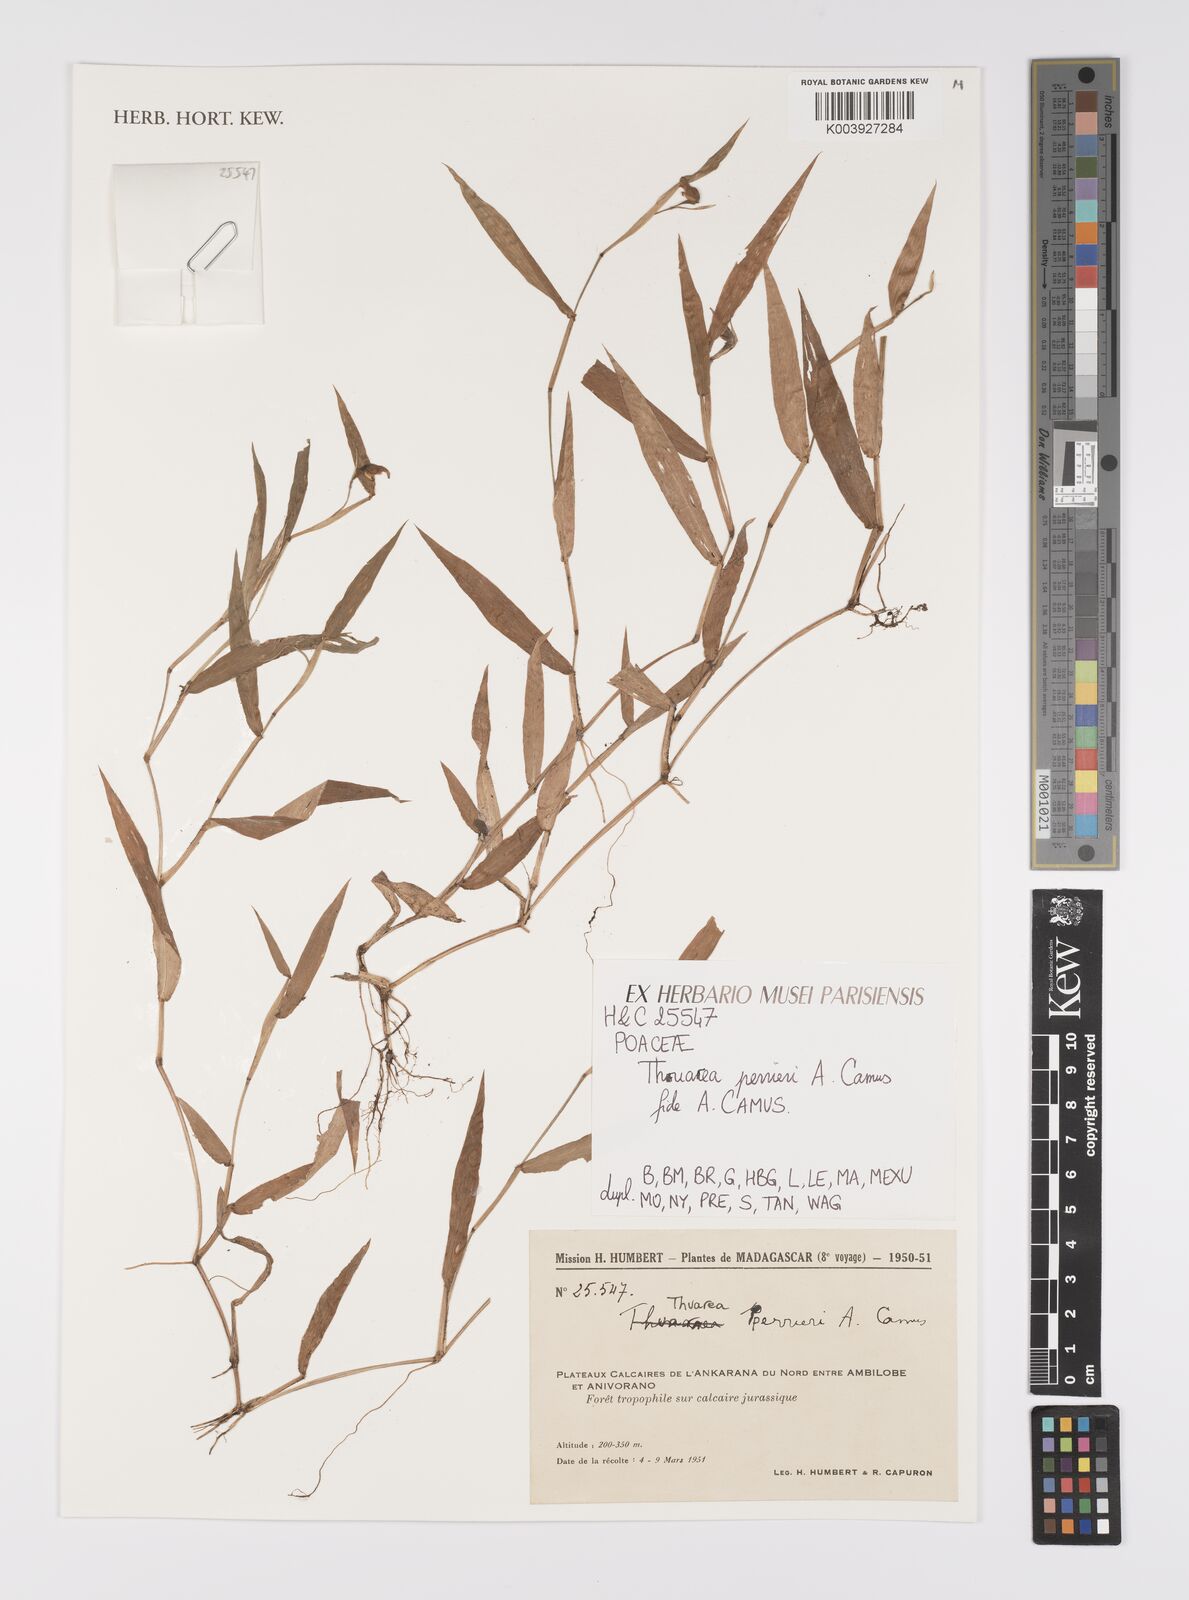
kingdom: Plantae
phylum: Tracheophyta
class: Liliopsida
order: Poales
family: Poaceae
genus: Thuarea
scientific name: Thuarea perrieri
